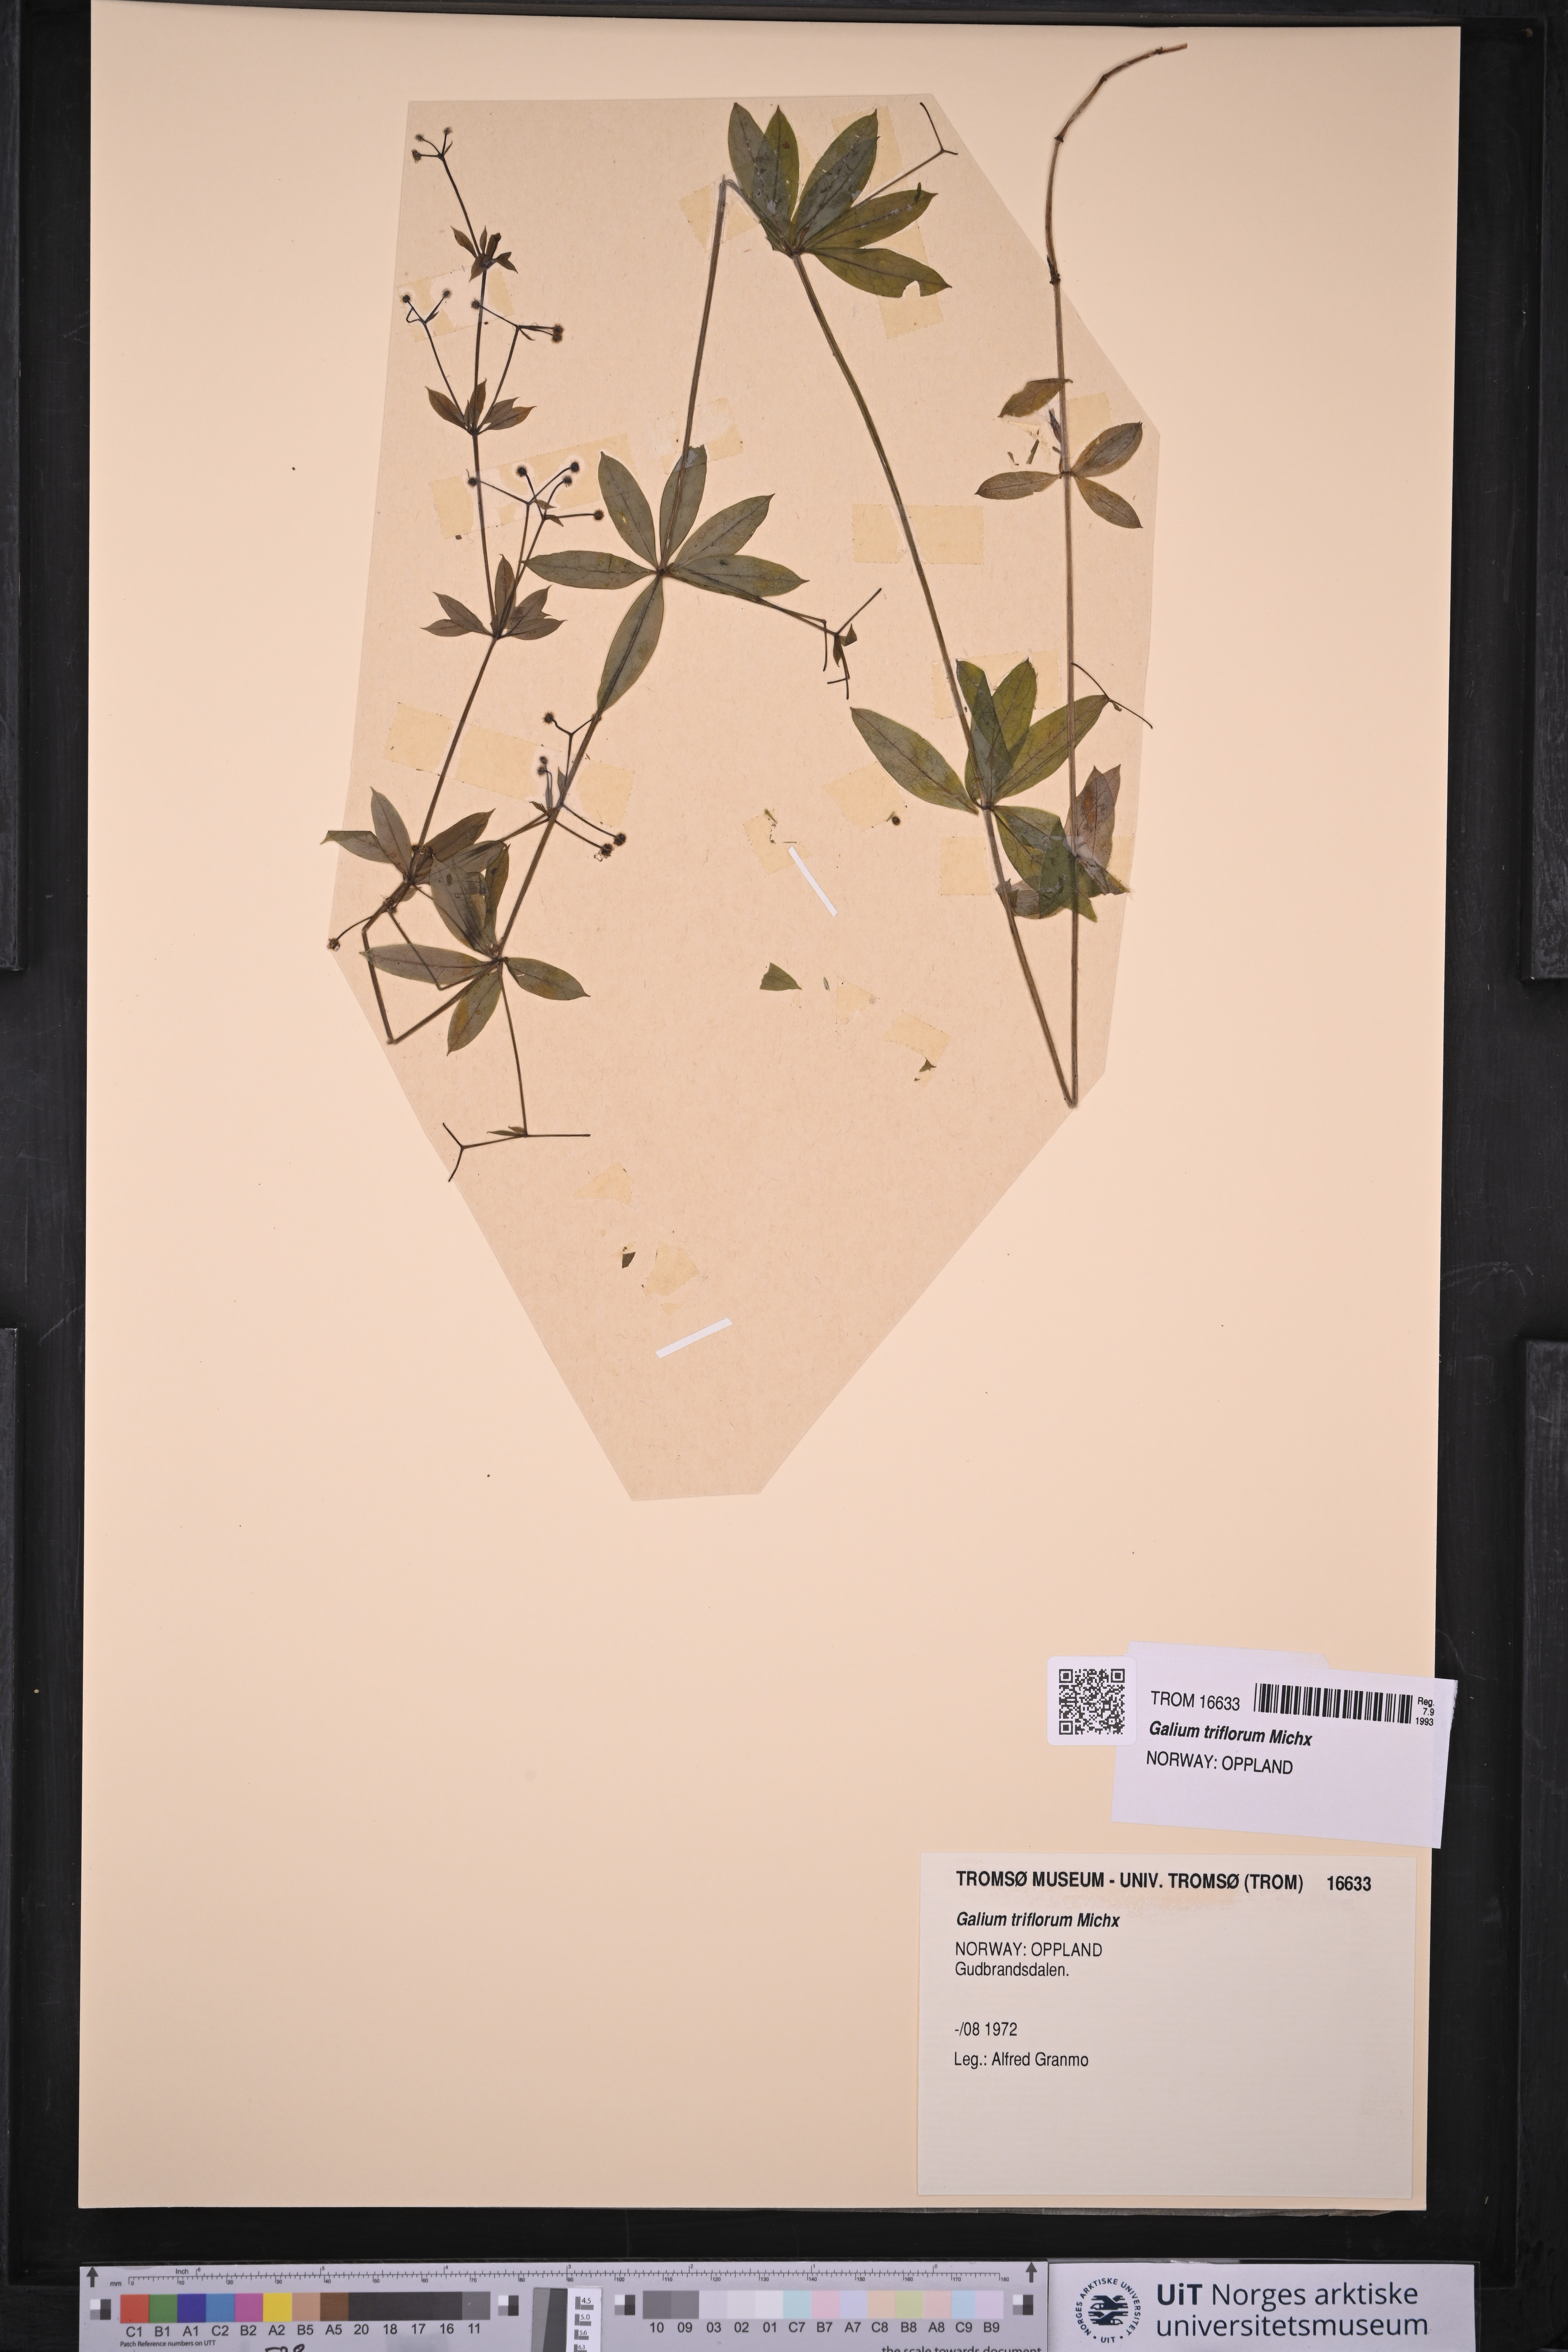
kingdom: Plantae
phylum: Tracheophyta
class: Magnoliopsida
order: Gentianales
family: Rubiaceae
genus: Galium
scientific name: Galium triflorum
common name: Fragrant bedstraw
